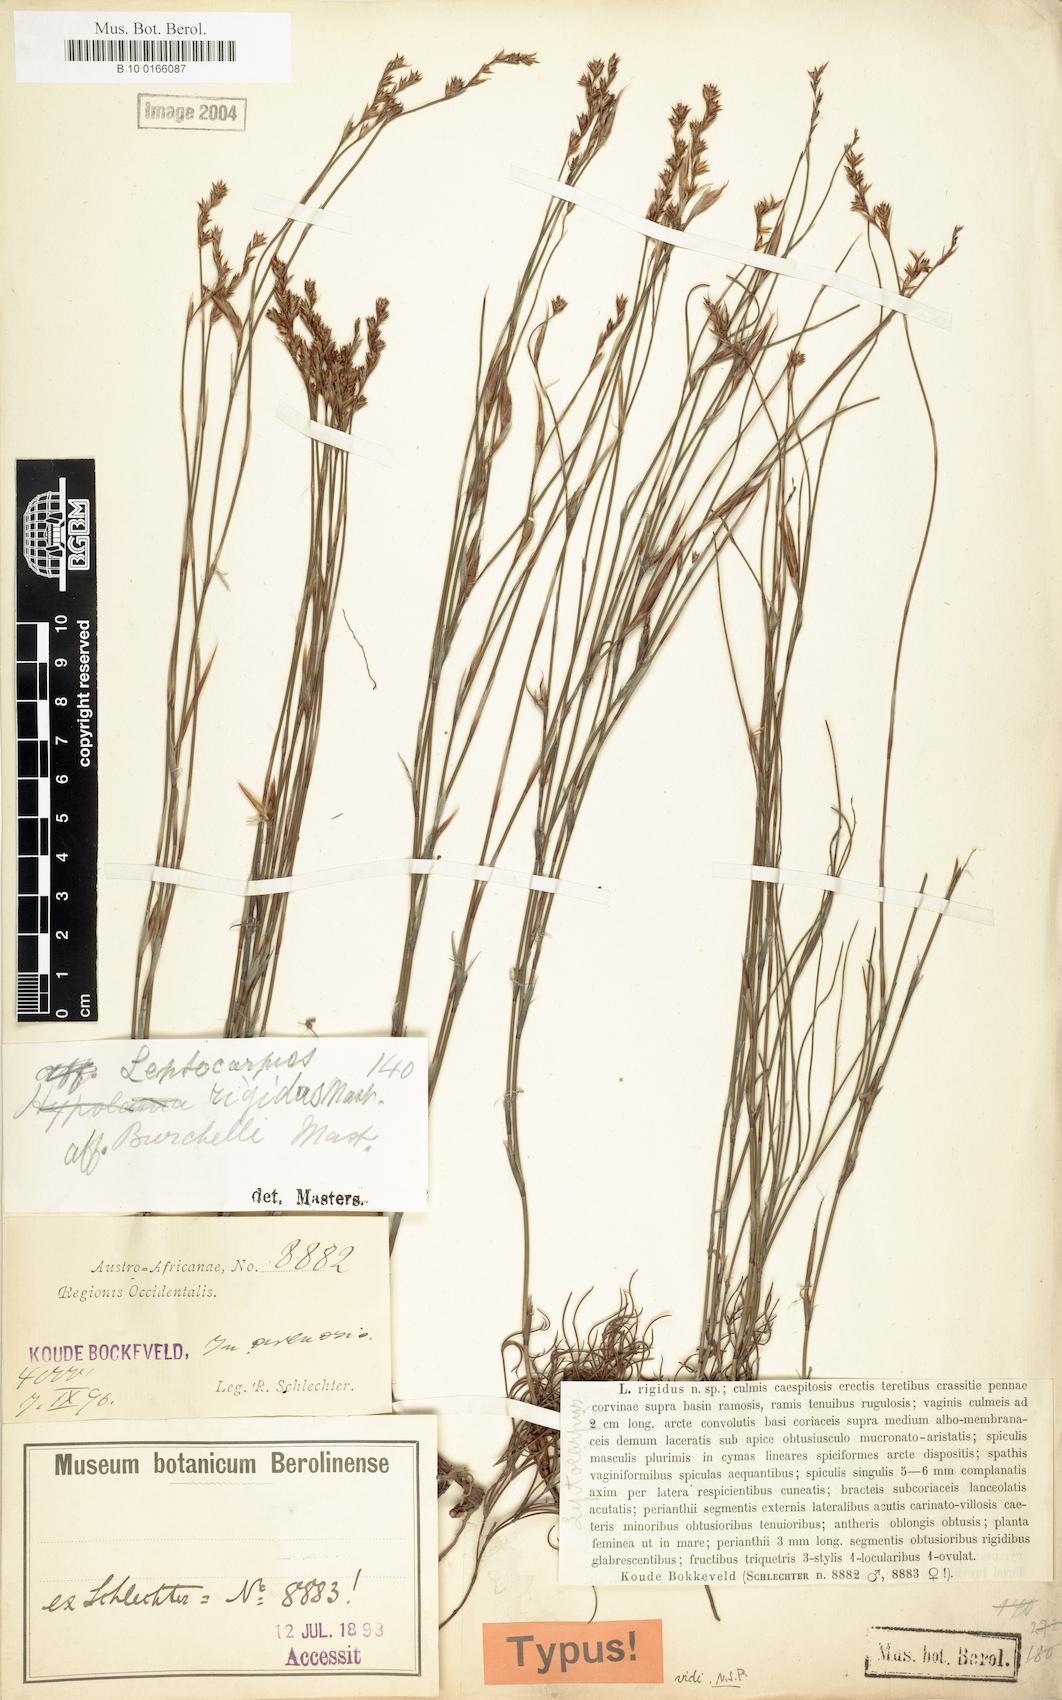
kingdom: Plantae
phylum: Tracheophyta
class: Liliopsida
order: Poales
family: Restionaceae
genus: Restio
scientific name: Restio rigidus
